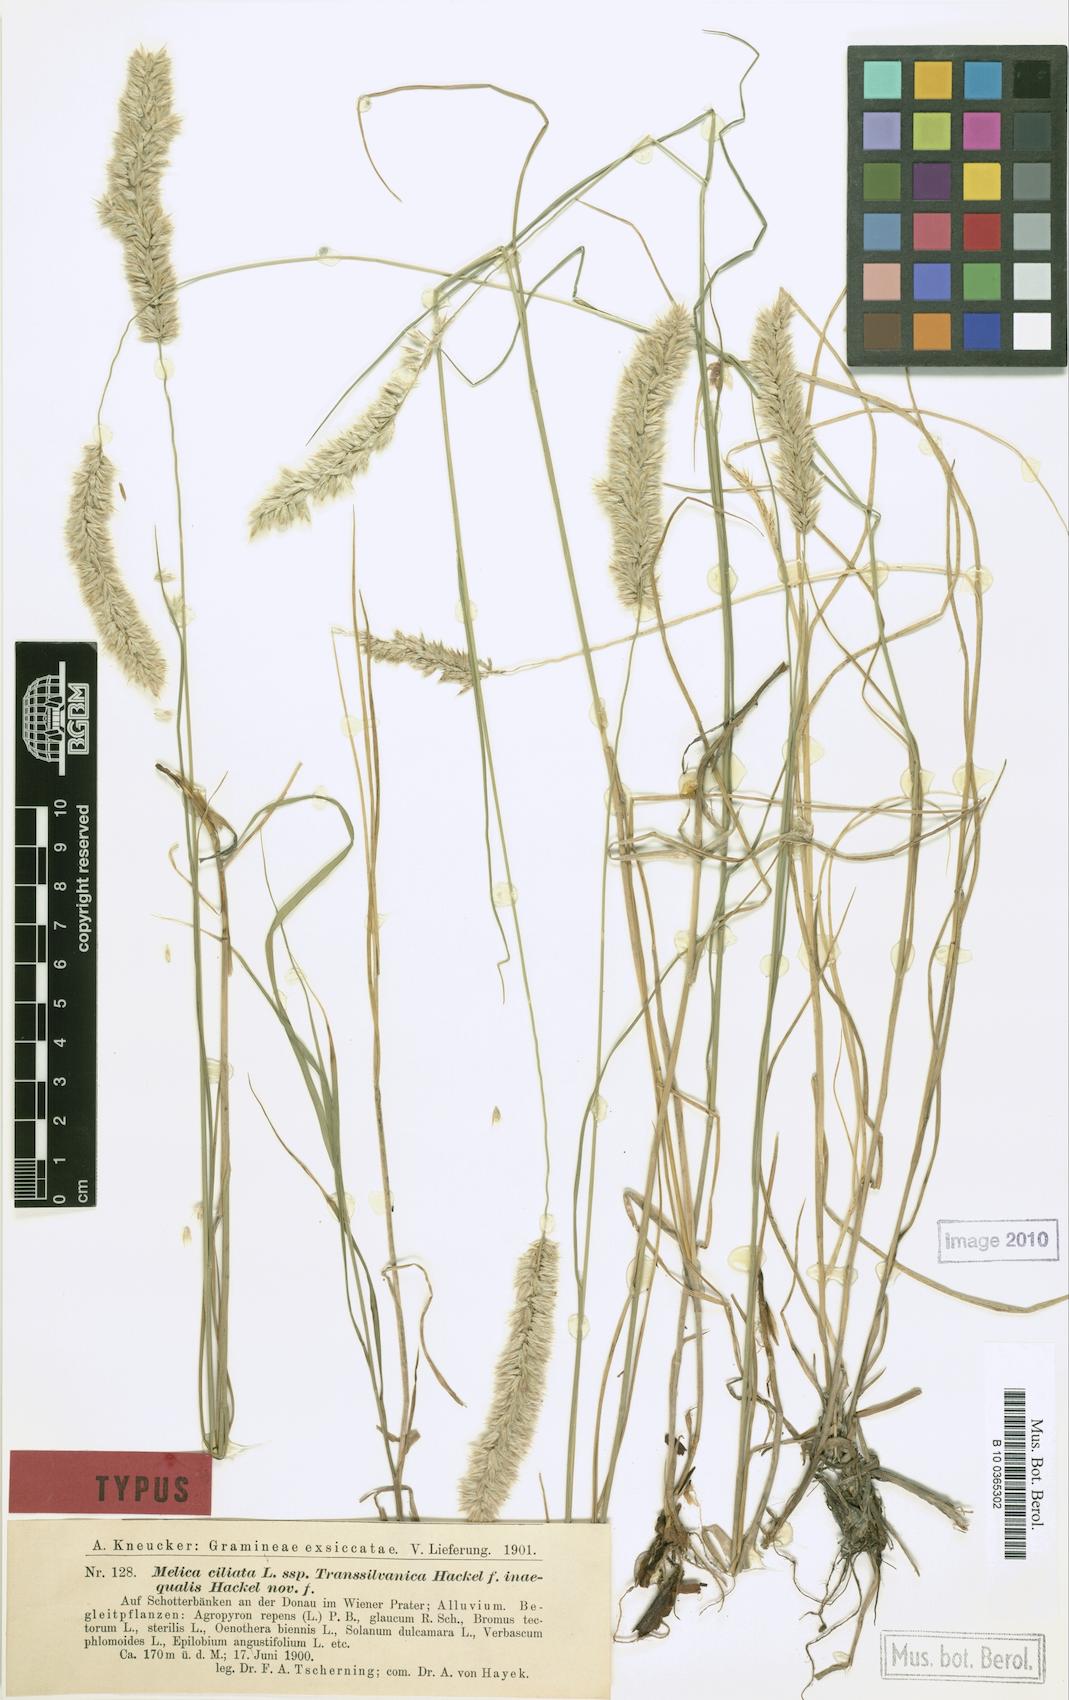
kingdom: Plantae
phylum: Tracheophyta
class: Liliopsida
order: Poales
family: Poaceae
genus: Melica
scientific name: Melica ciliata
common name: Hairy melicgrass
